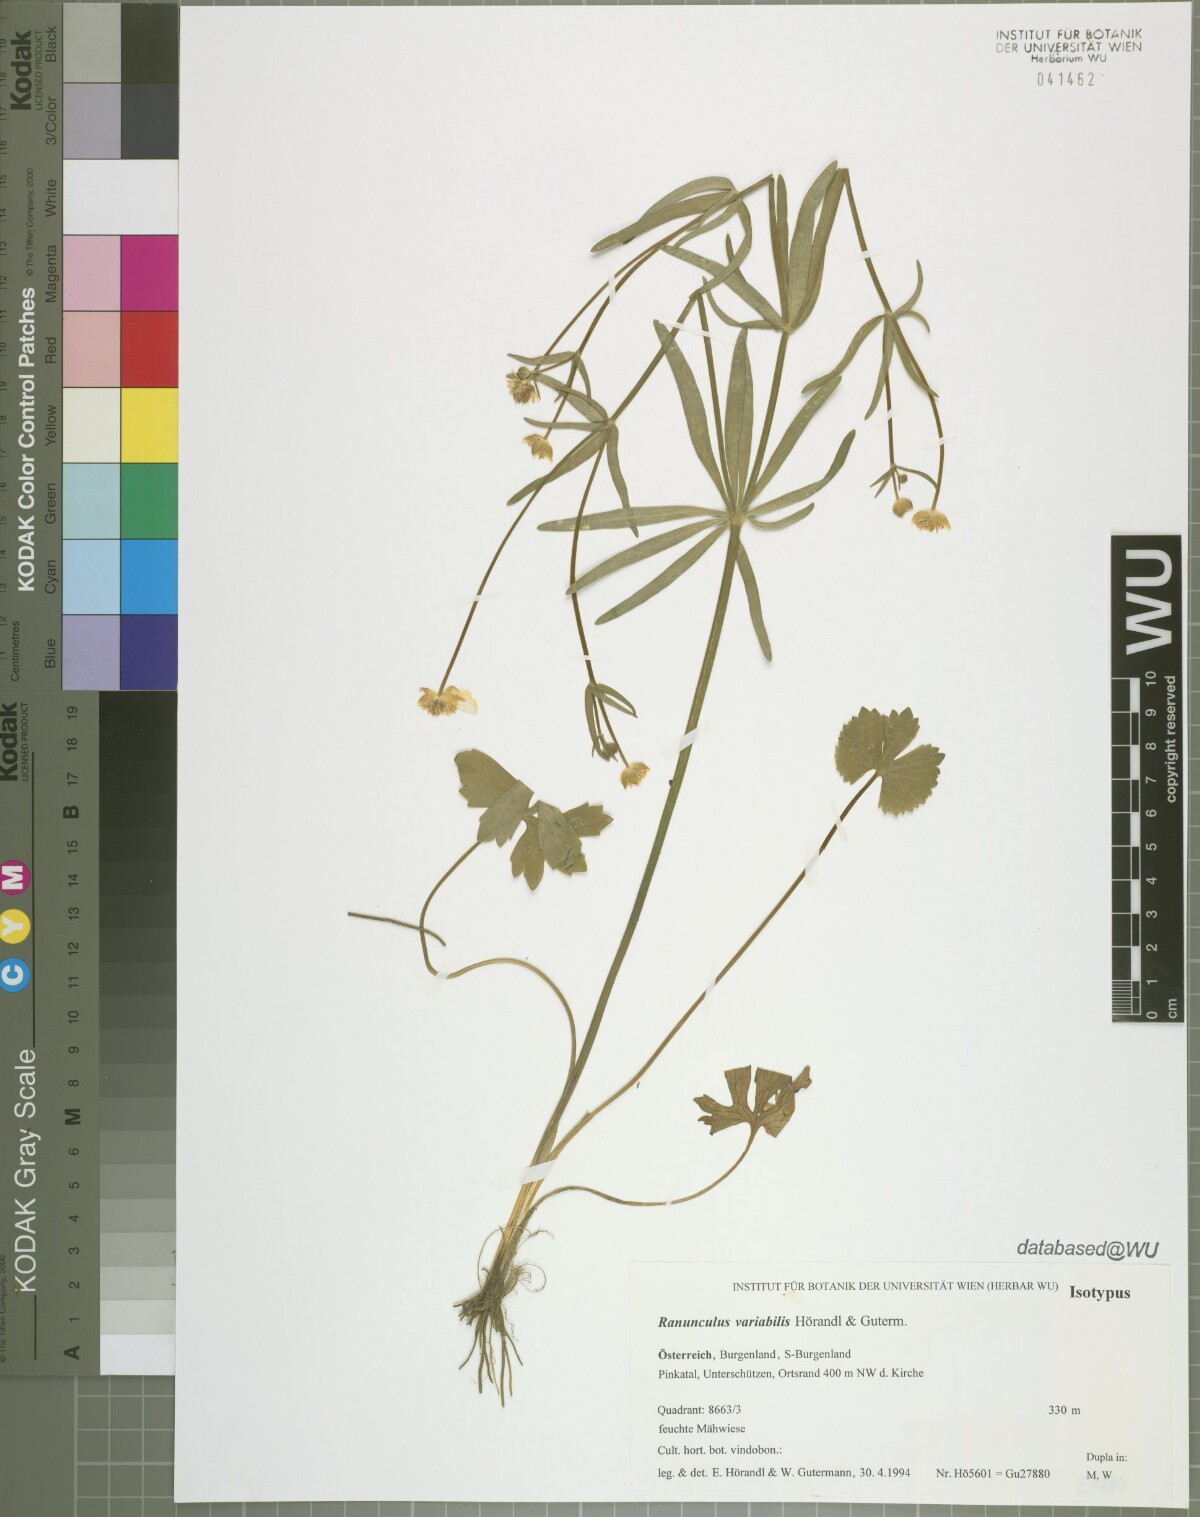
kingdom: Plantae
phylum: Tracheophyta
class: Magnoliopsida
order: Ranunculales
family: Ranunculaceae
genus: Ranunculus
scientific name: Ranunculus variabilis
